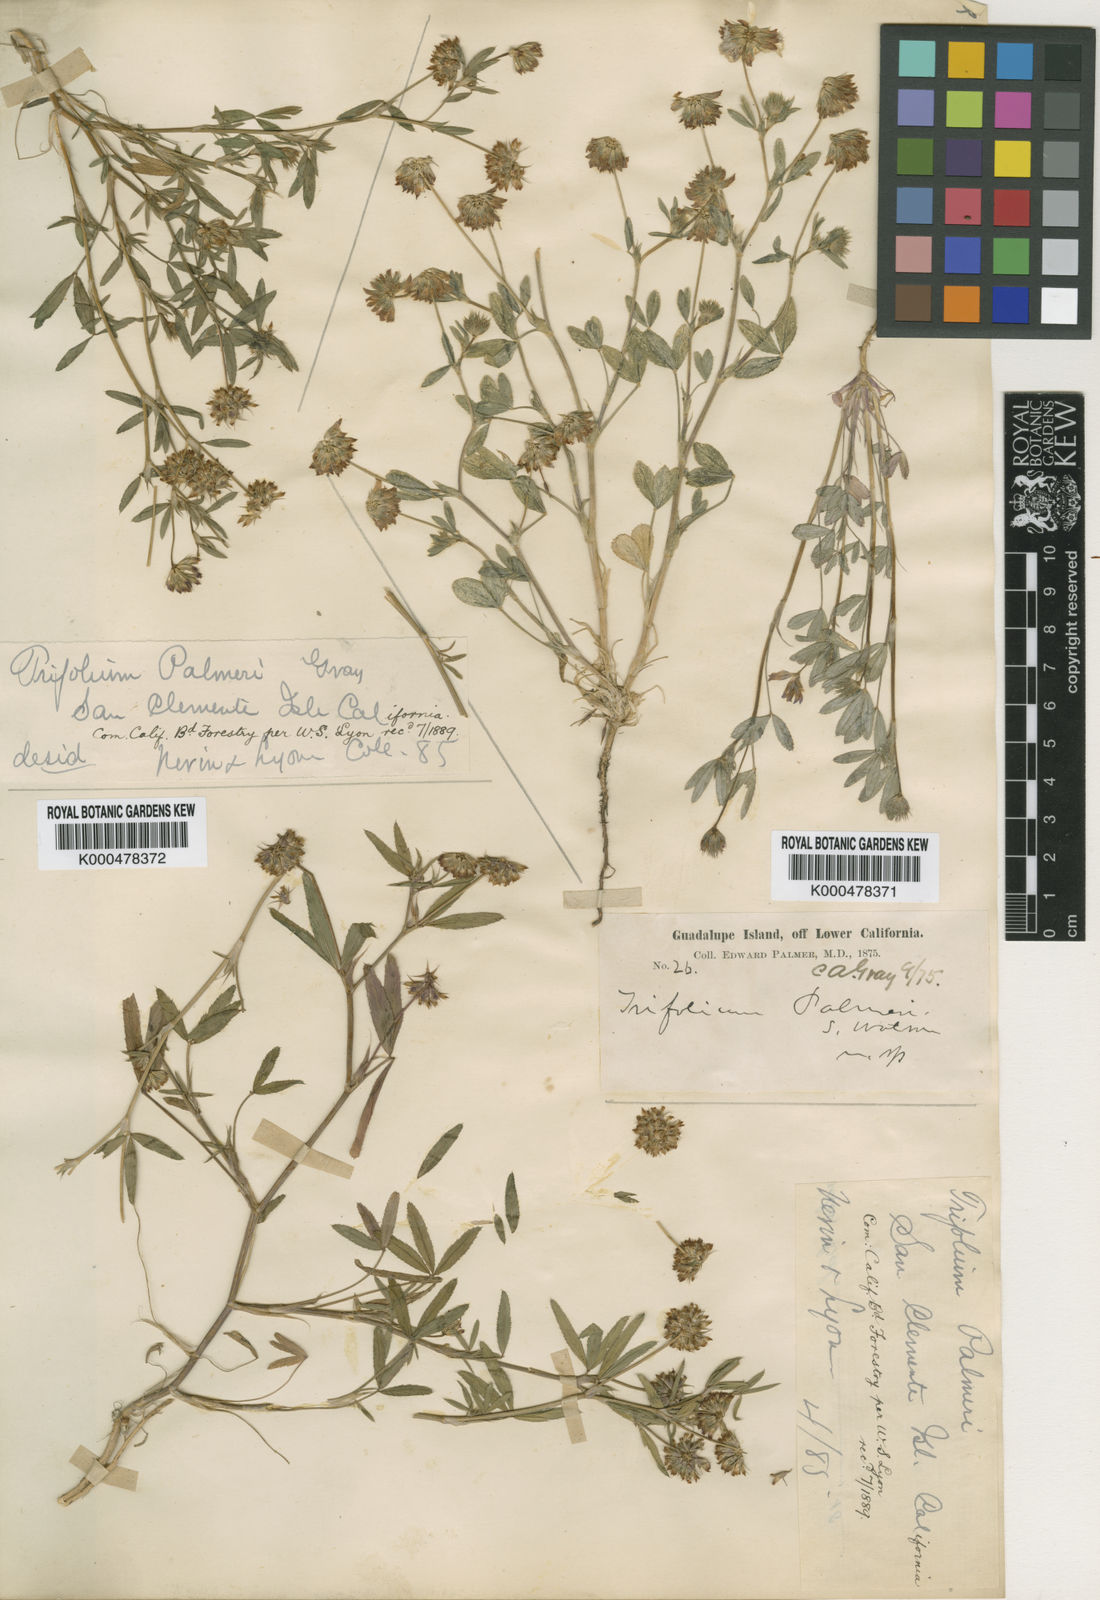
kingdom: Plantae
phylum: Tracheophyta
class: Magnoliopsida
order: Fabales
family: Fabaceae
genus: Trifolium
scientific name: Trifolium palmeri
